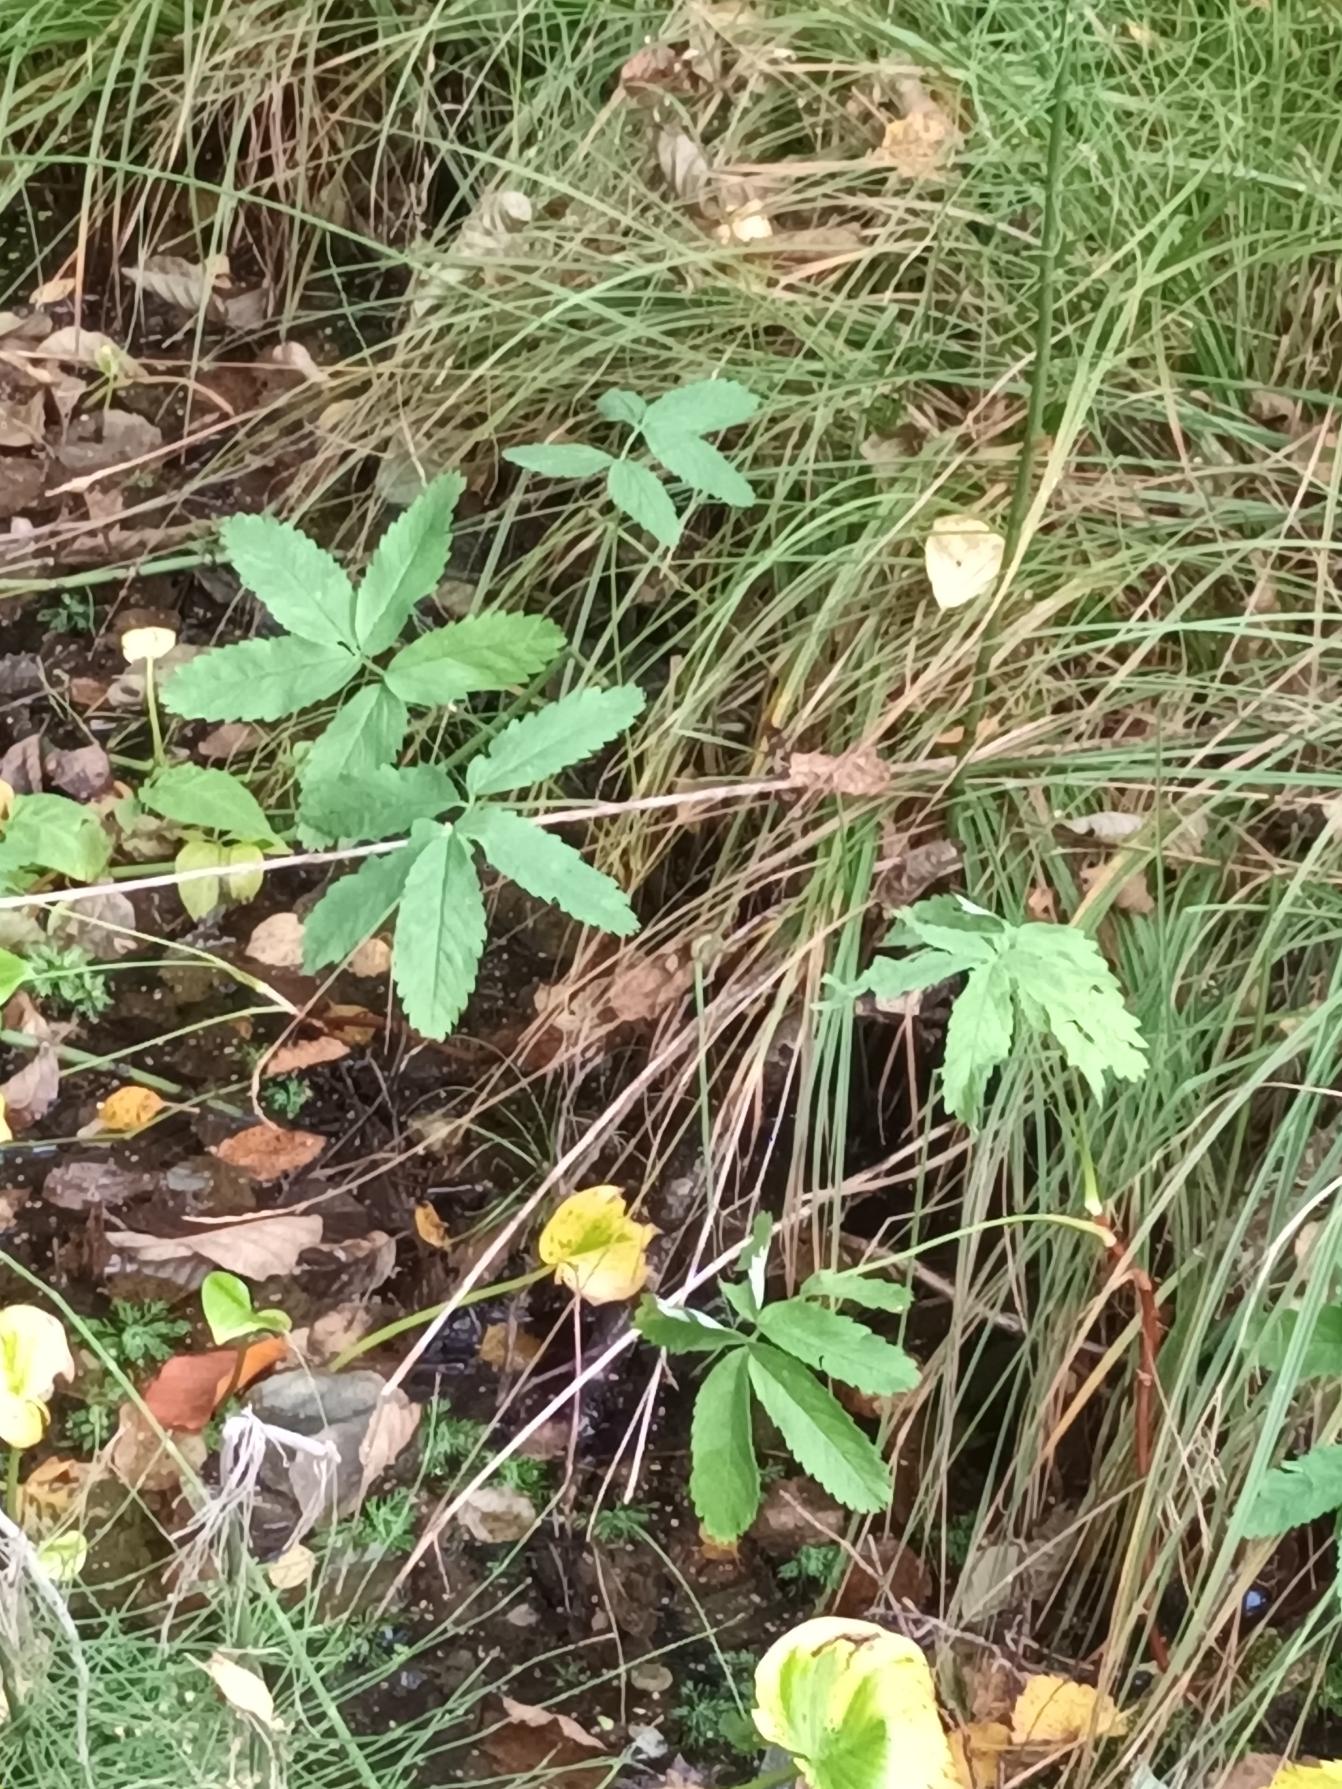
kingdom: Plantae
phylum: Tracheophyta
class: Magnoliopsida
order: Rosales
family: Rosaceae
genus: Comarum
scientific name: Comarum palustre
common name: Kragefod
